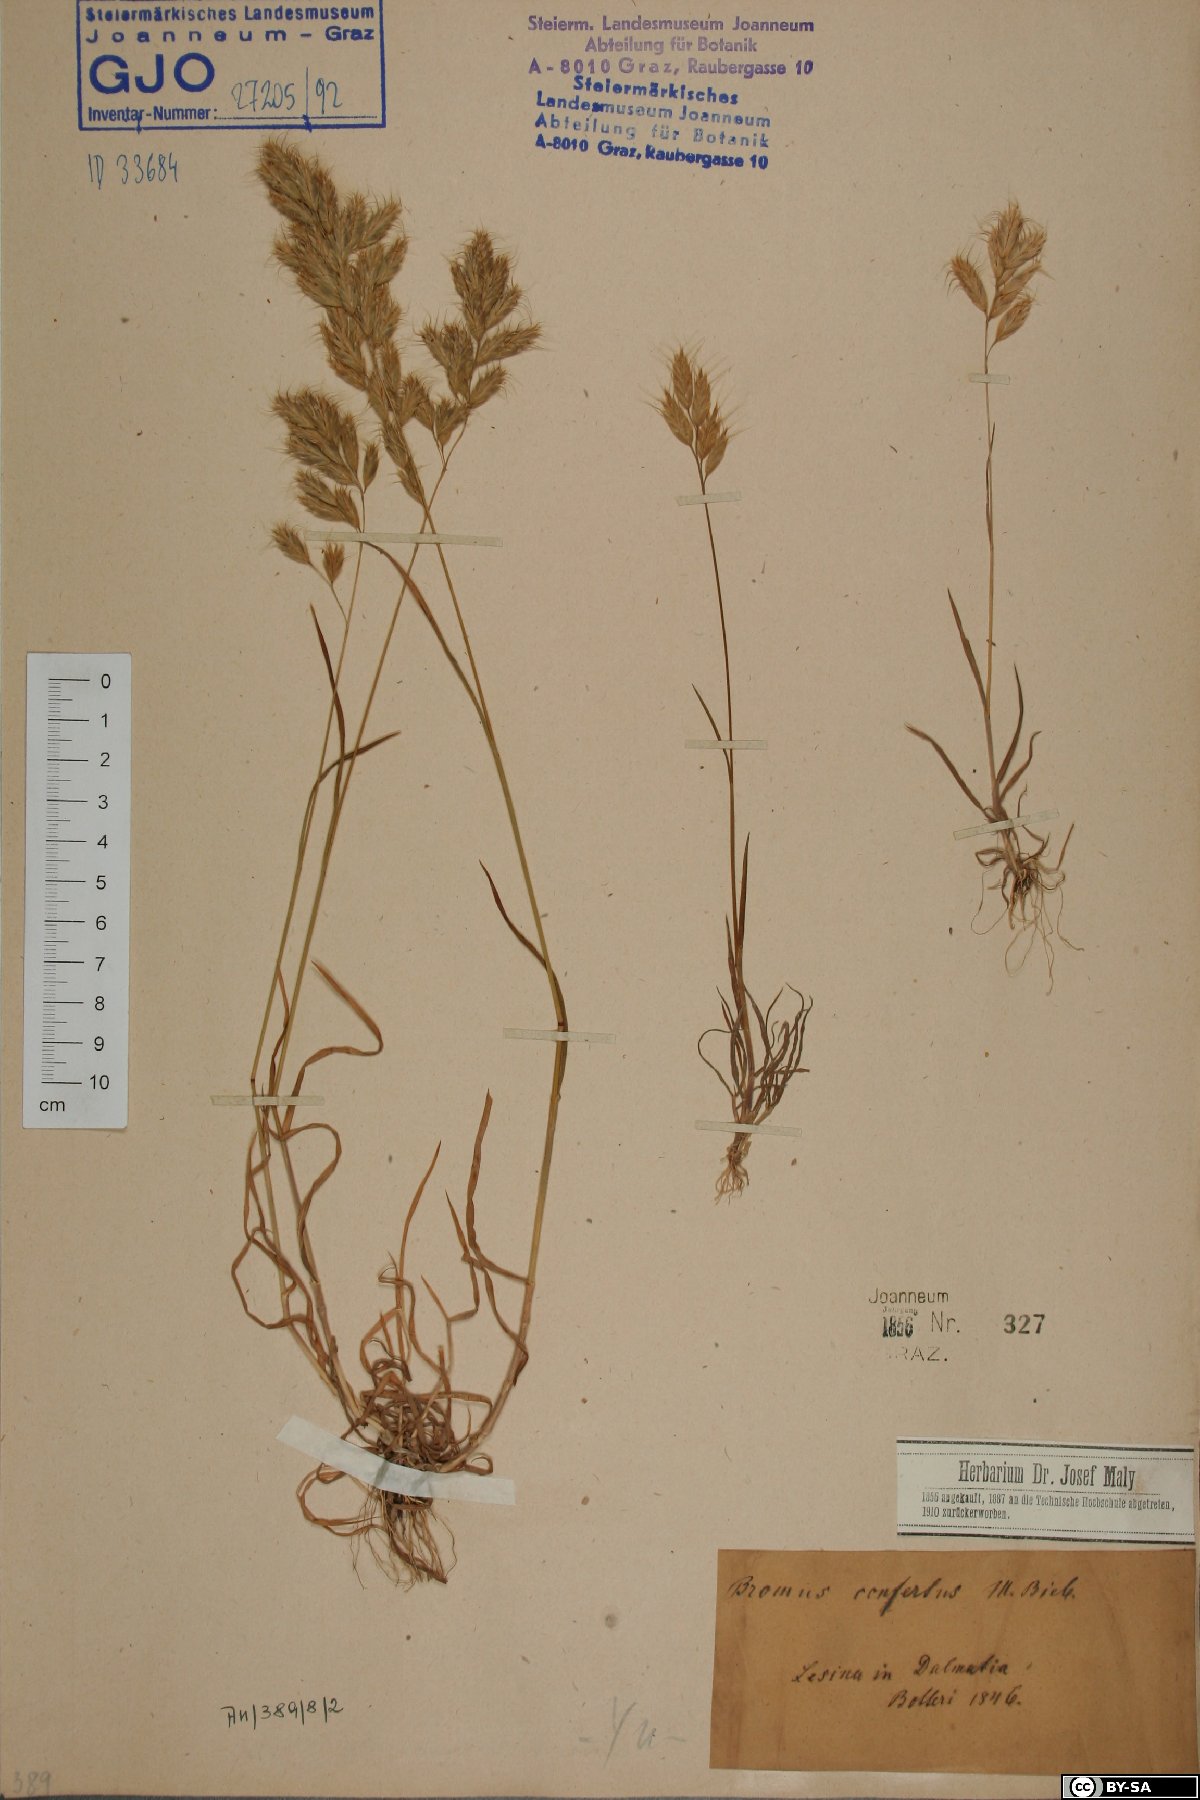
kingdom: Plantae
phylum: Tracheophyta
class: Liliopsida
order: Poales
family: Poaceae
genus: Bromus
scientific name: Bromus scoparius
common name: Broom brome
